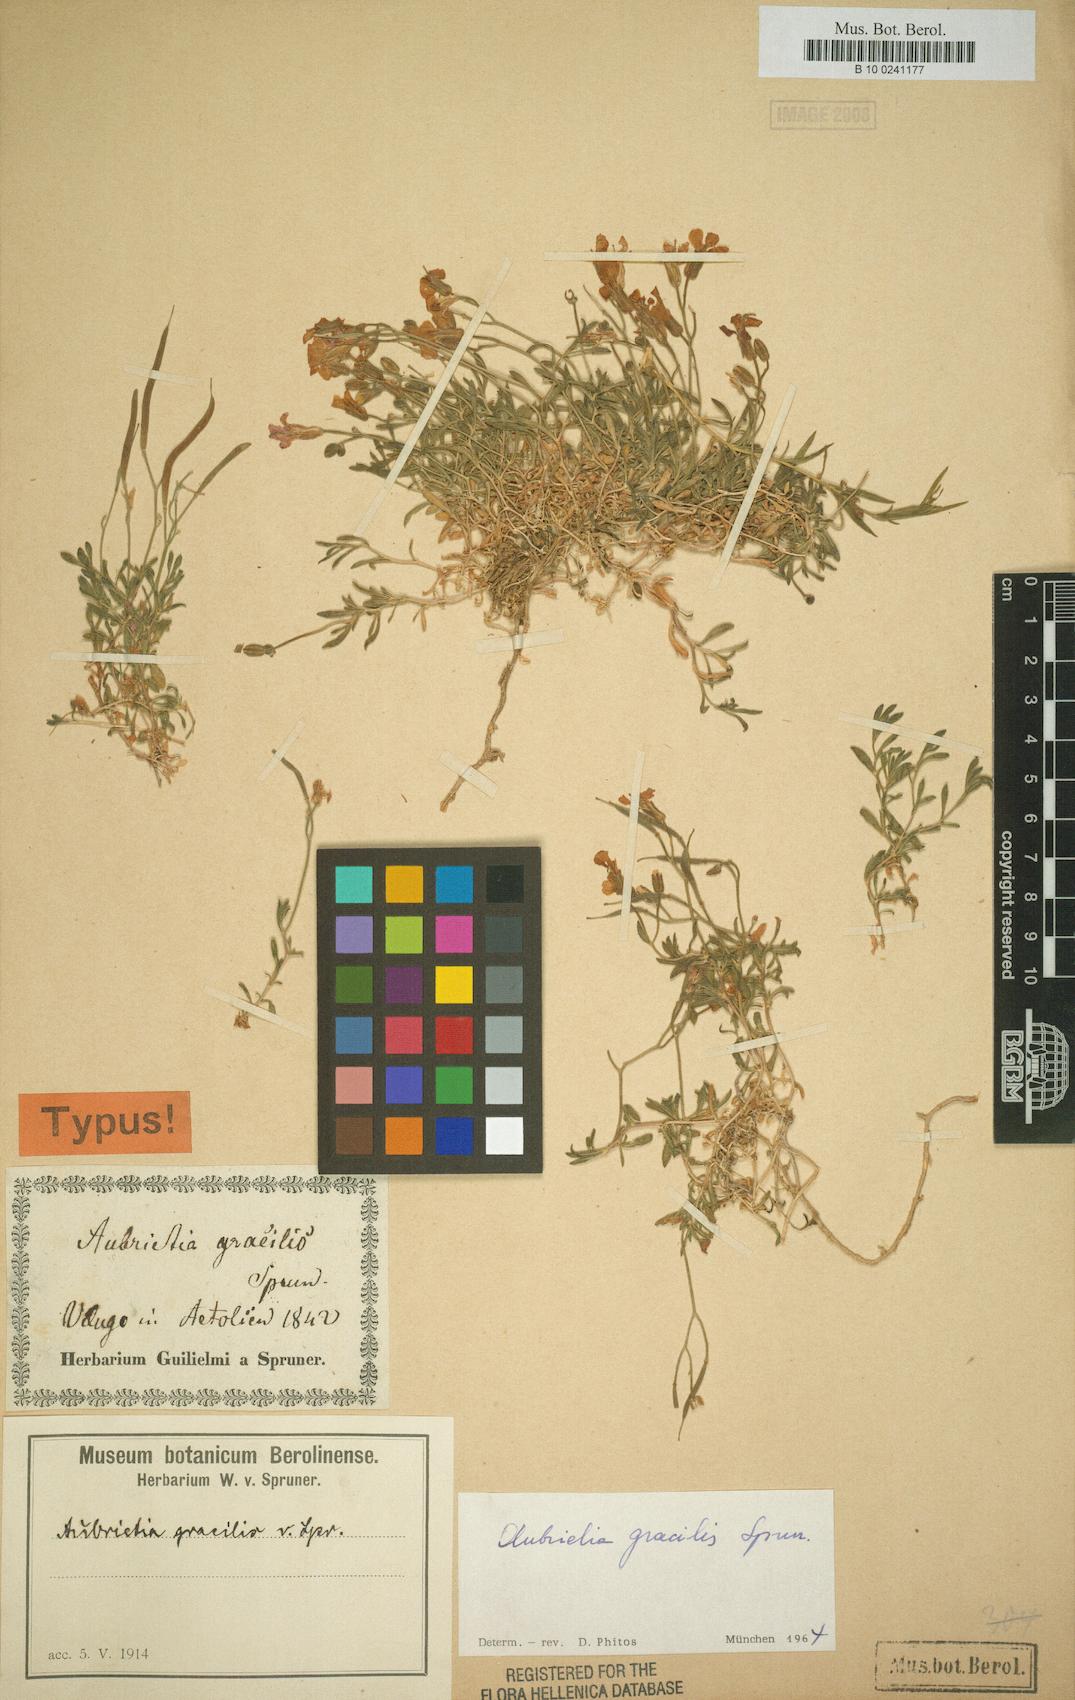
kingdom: Plantae
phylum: Tracheophyta
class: Magnoliopsida
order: Brassicales
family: Brassicaceae
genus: Aubrieta
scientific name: Aubrieta gracilis
